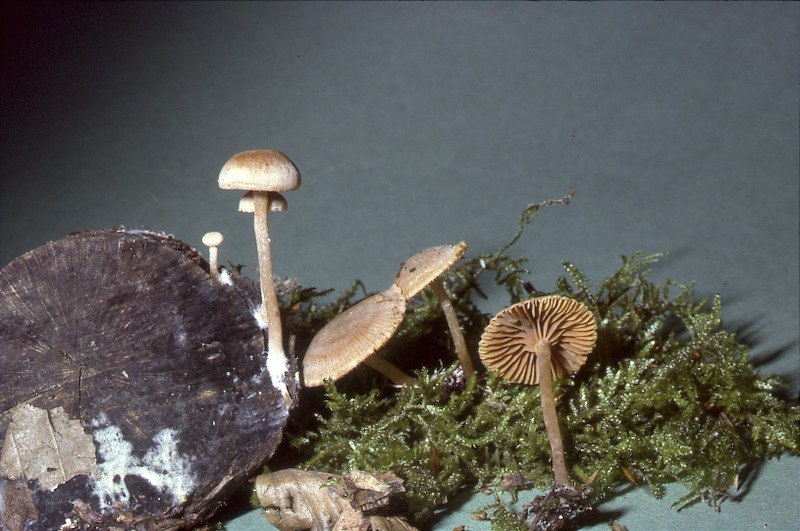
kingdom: Fungi
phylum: Basidiomycota
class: Agaricomycetes
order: Agaricales
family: Tubariaceae
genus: Tubaria
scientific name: Tubaria furfuracea
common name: Scurfy twiglet
